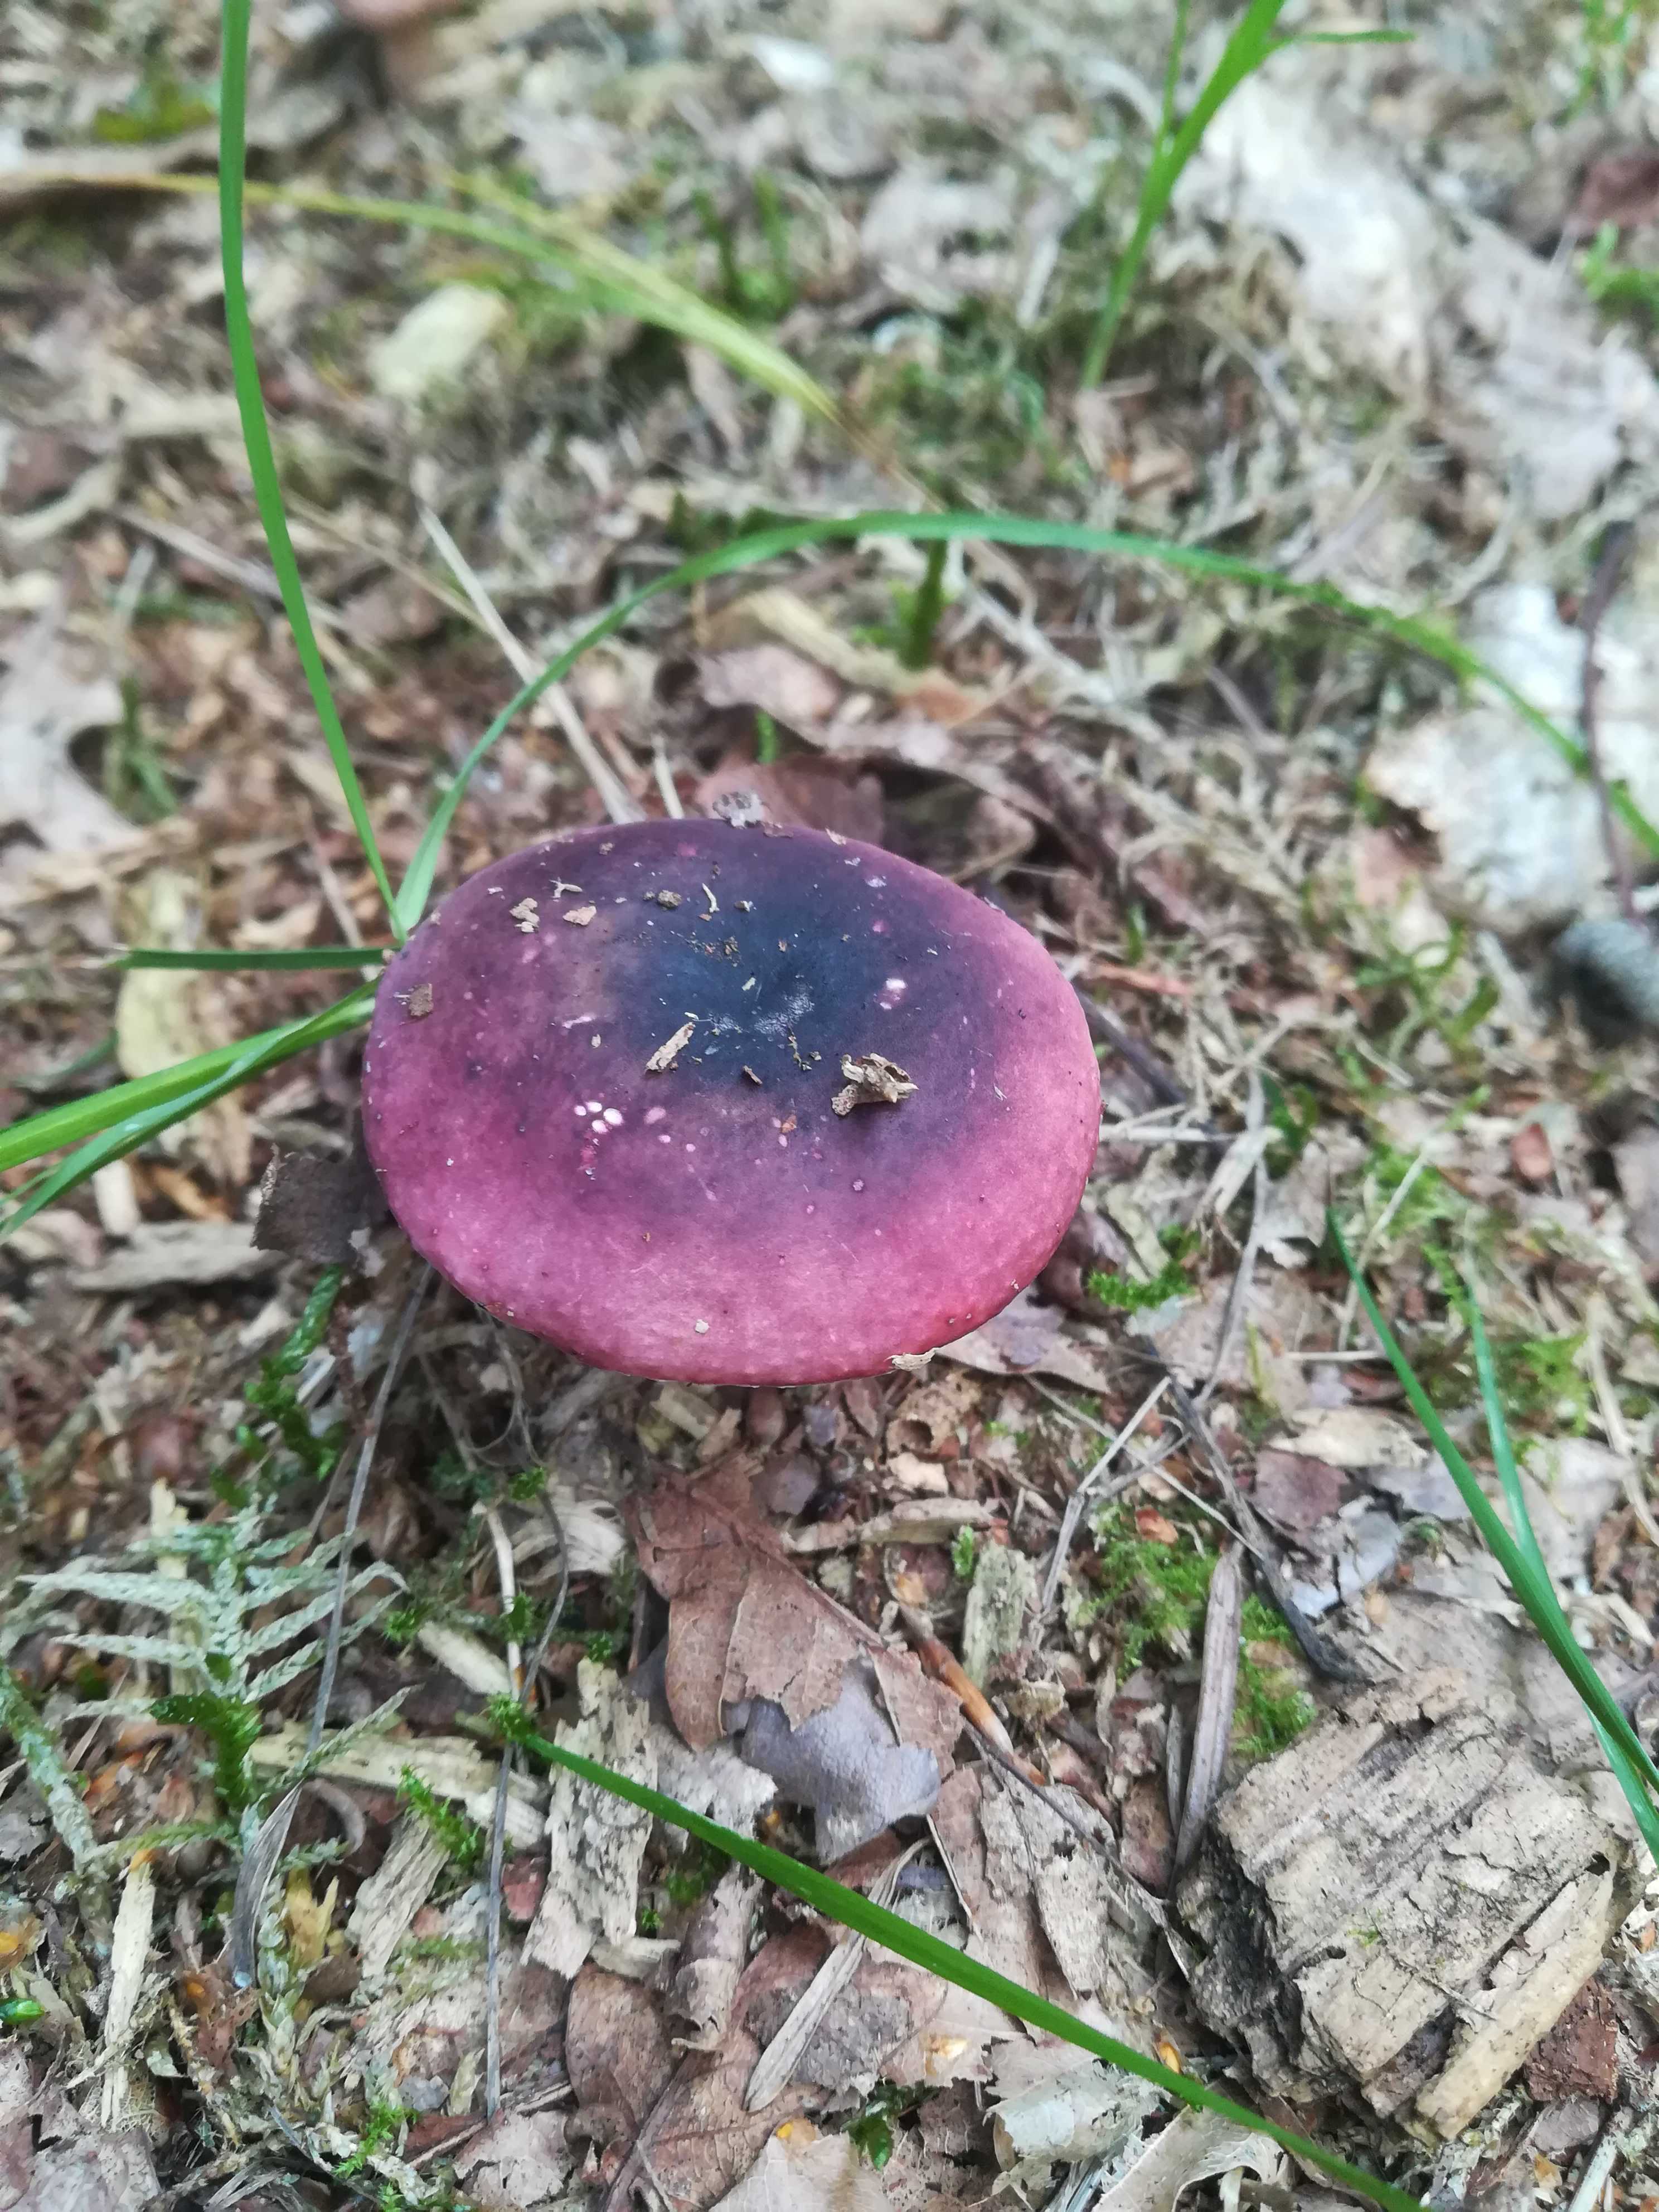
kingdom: Fungi
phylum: Basidiomycota
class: Agaricomycetes
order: Russulales
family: Russulaceae
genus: Russula
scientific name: Russula atropurpurea
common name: purpurbroget skørhat
